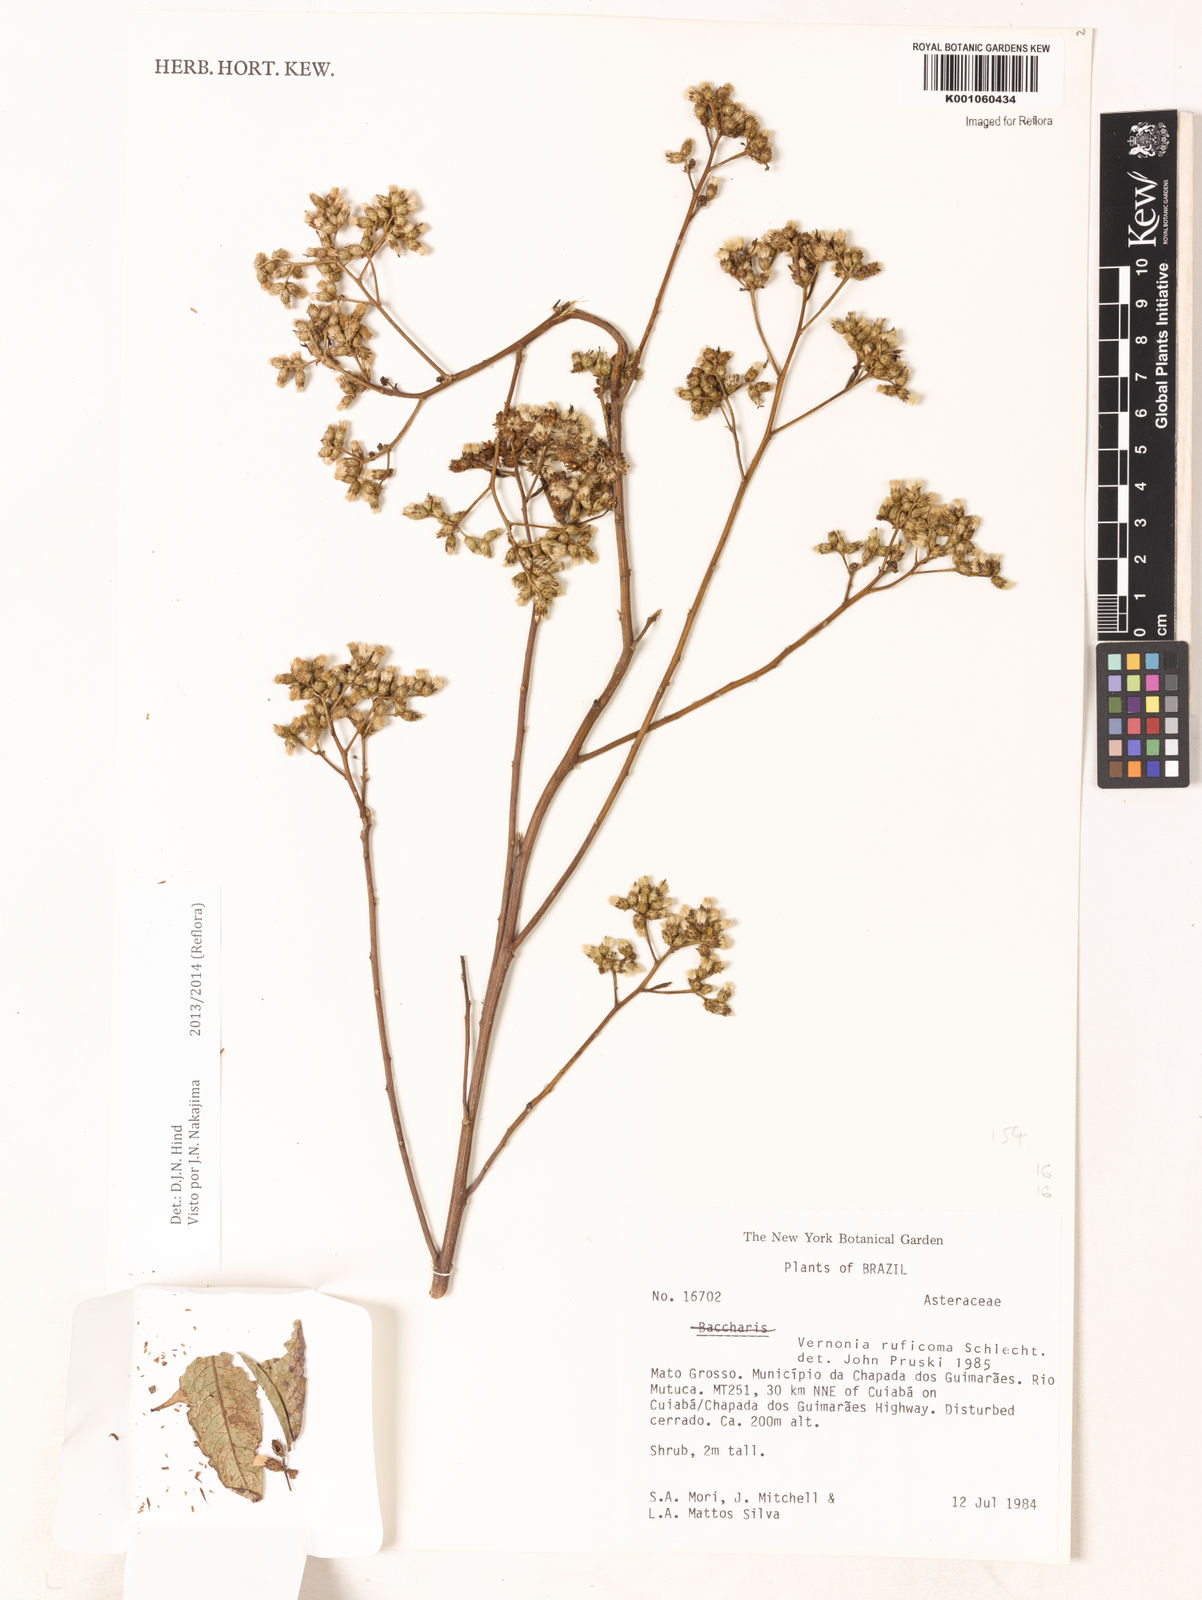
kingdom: Plantae
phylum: Tracheophyta
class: Magnoliopsida
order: Asterales
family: Asteraceae
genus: Vernonia
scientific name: Vernonia
